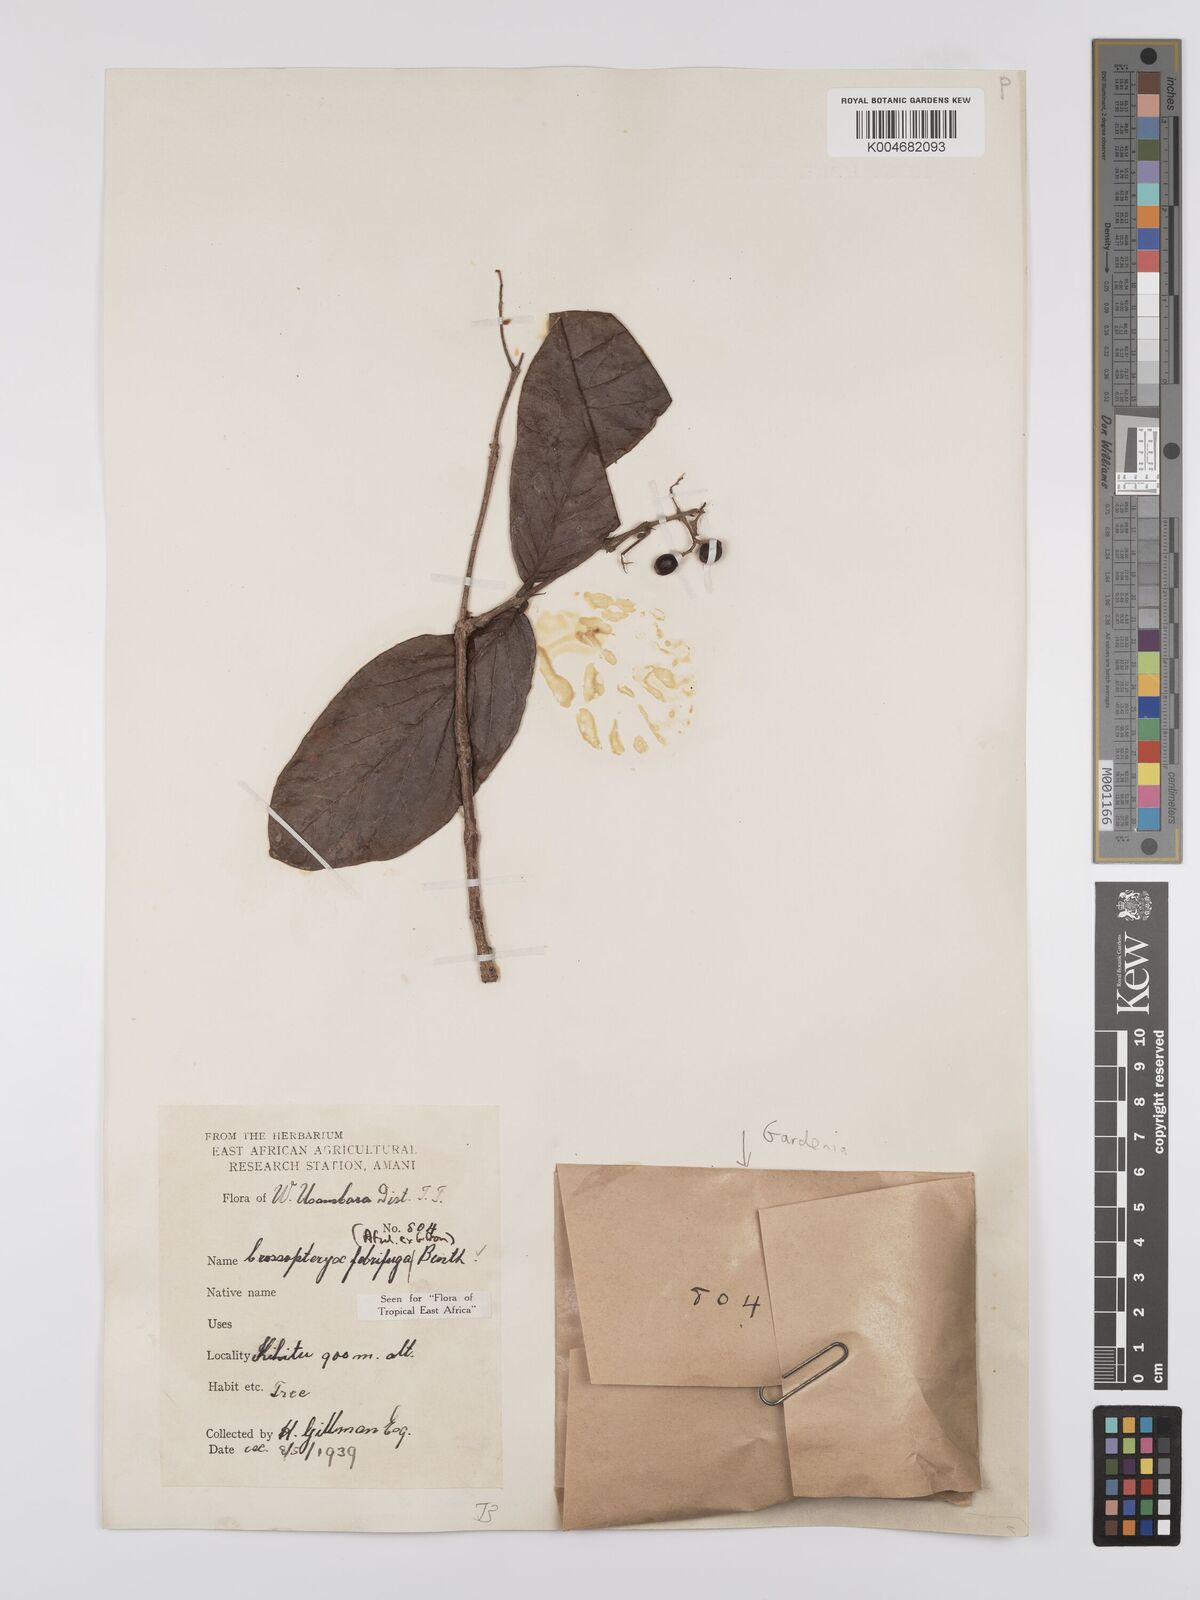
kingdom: Plantae
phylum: Tracheophyta
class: Magnoliopsida
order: Gentianales
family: Rubiaceae
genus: Crossopteryx
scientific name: Crossopteryx
